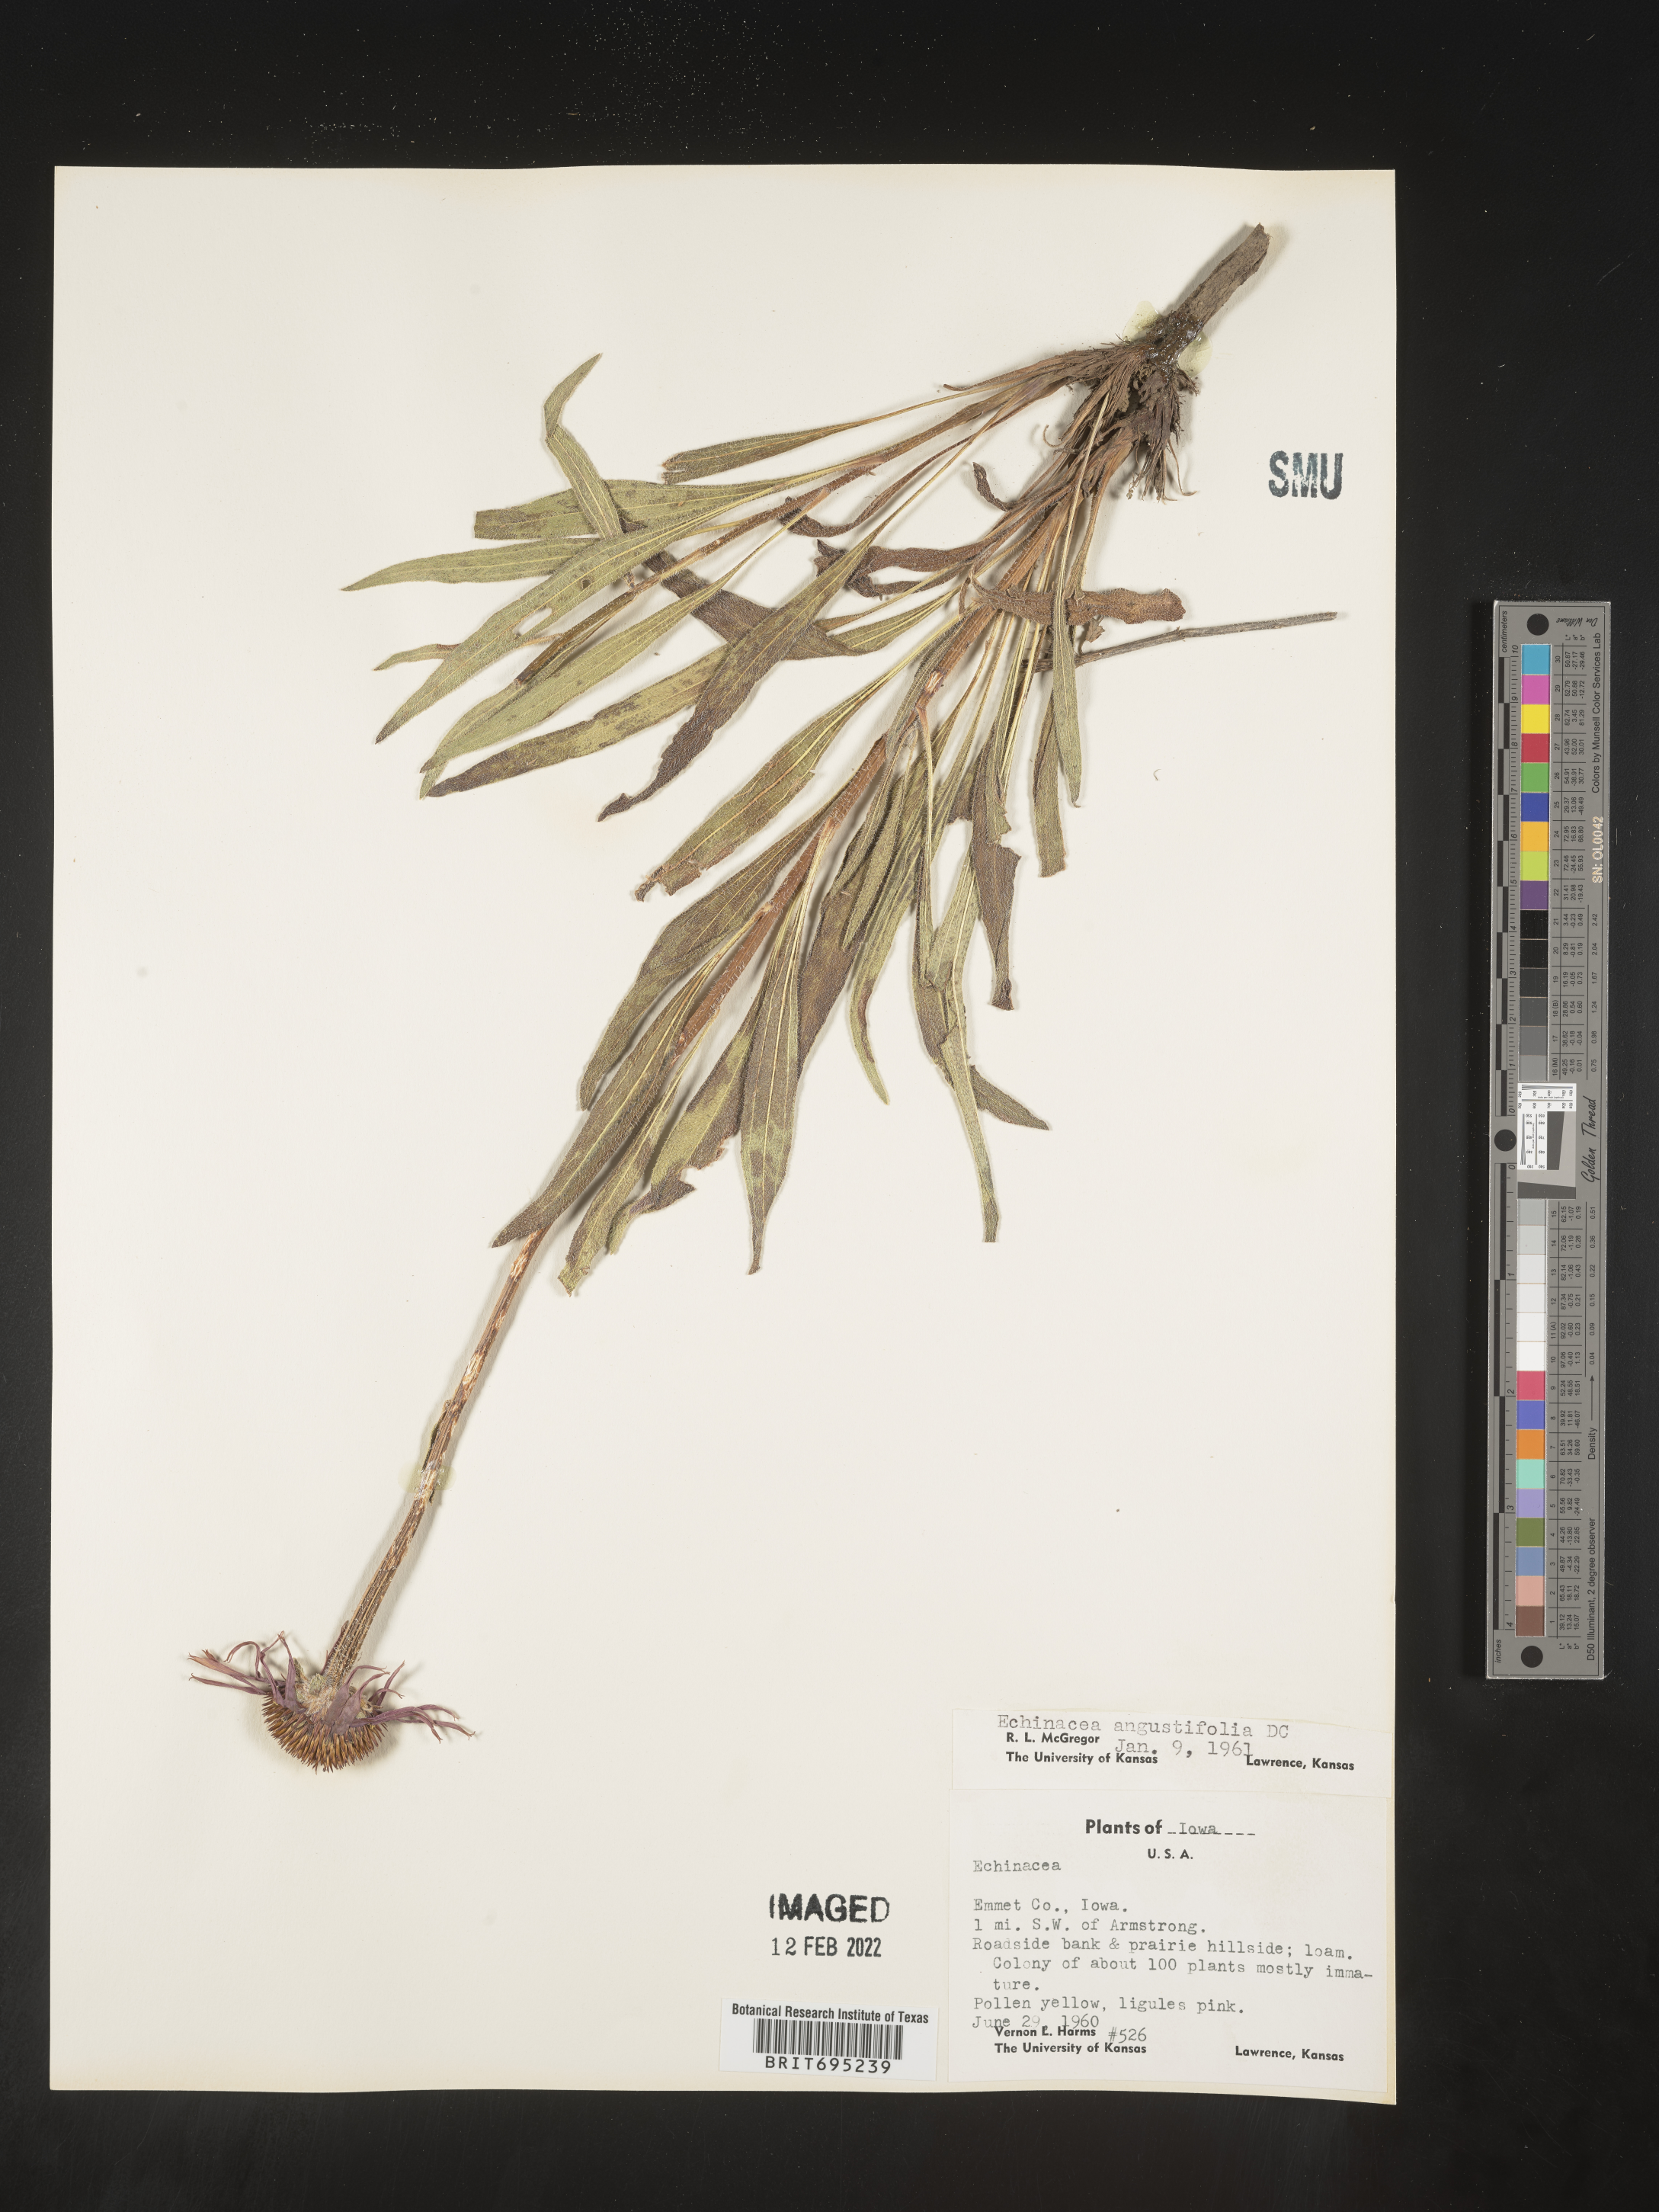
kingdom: Plantae
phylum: Tracheophyta
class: Magnoliopsida
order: Asterales
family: Asteraceae
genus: Echinacea
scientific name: Echinacea angustifolia
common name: Black-sampson echinacea
